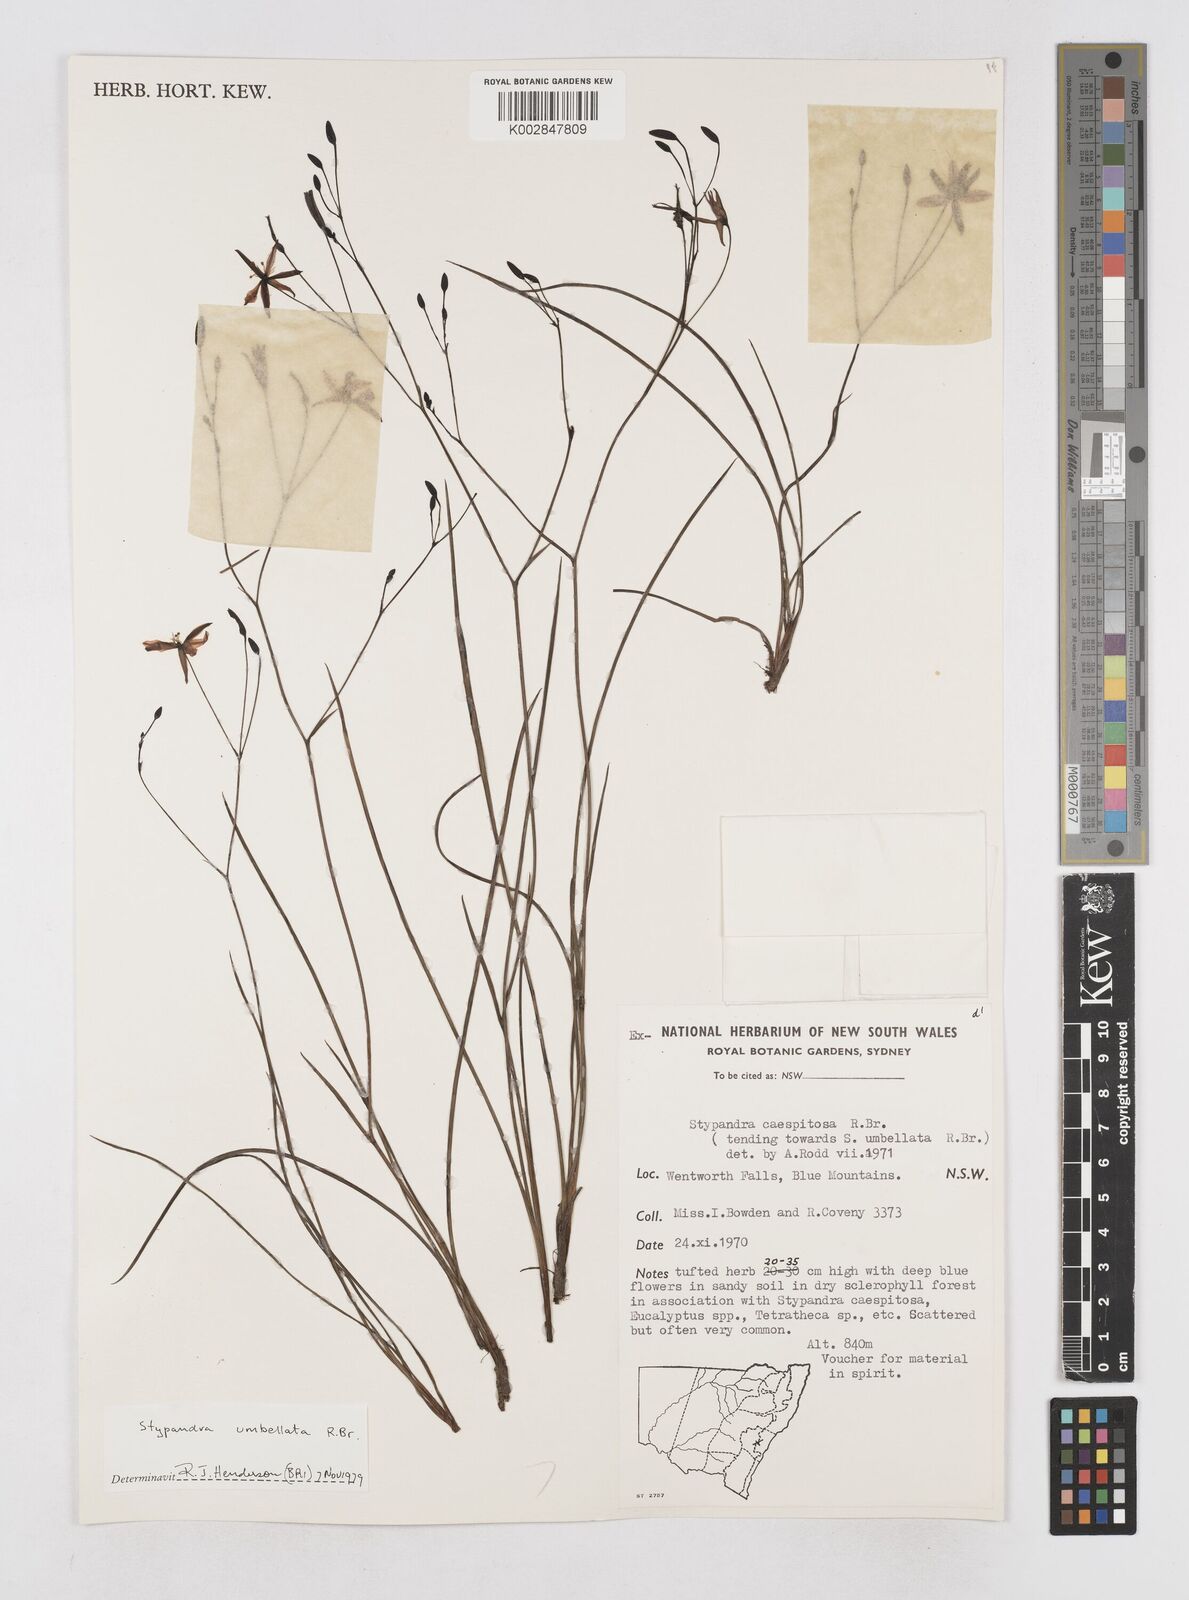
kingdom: Plantae
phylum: Tracheophyta
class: Liliopsida
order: Asparagales
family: Asphodelaceae
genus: Thelionema
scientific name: Thelionema umbellatum
